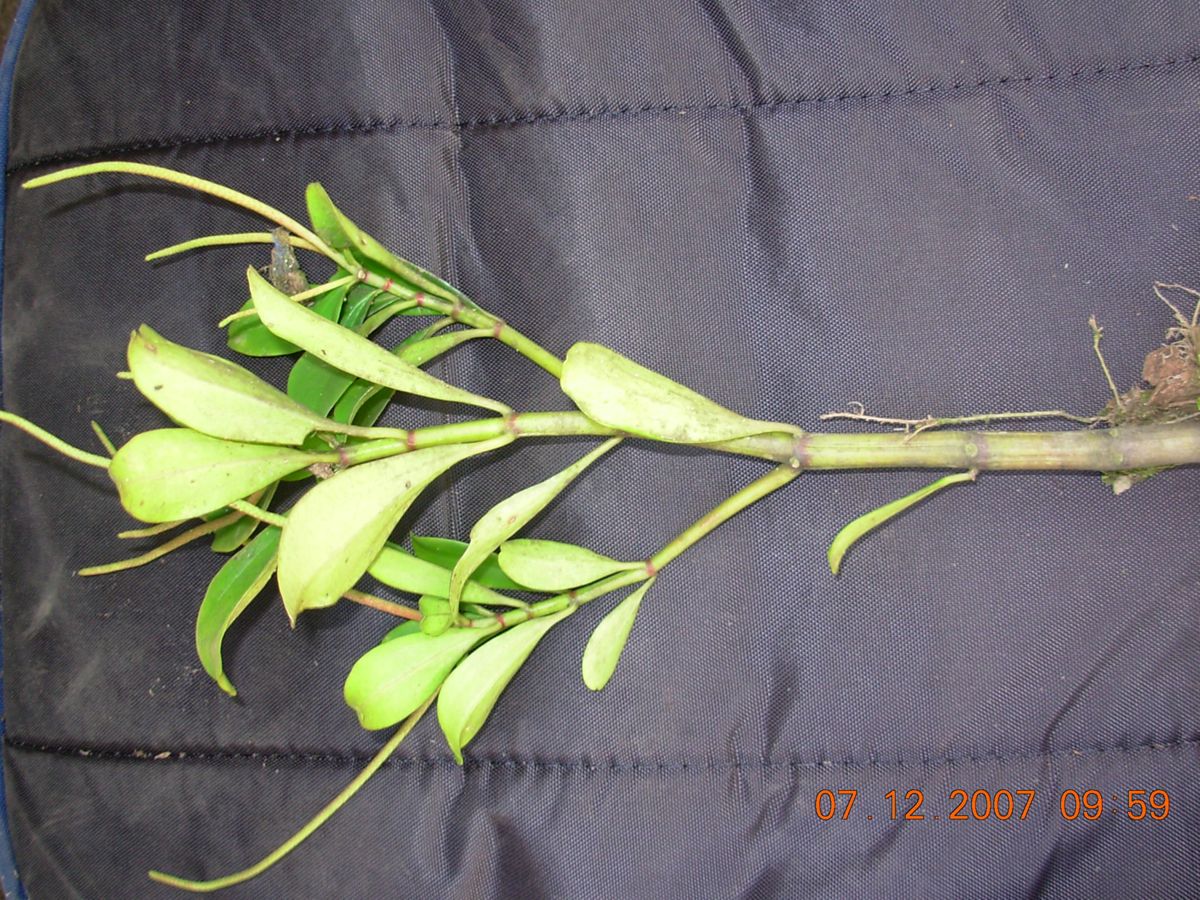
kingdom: Plantae
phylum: Tracheophyta
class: Magnoliopsida
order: Piperales
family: Piperaceae
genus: Peperomia
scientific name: Peperomia
